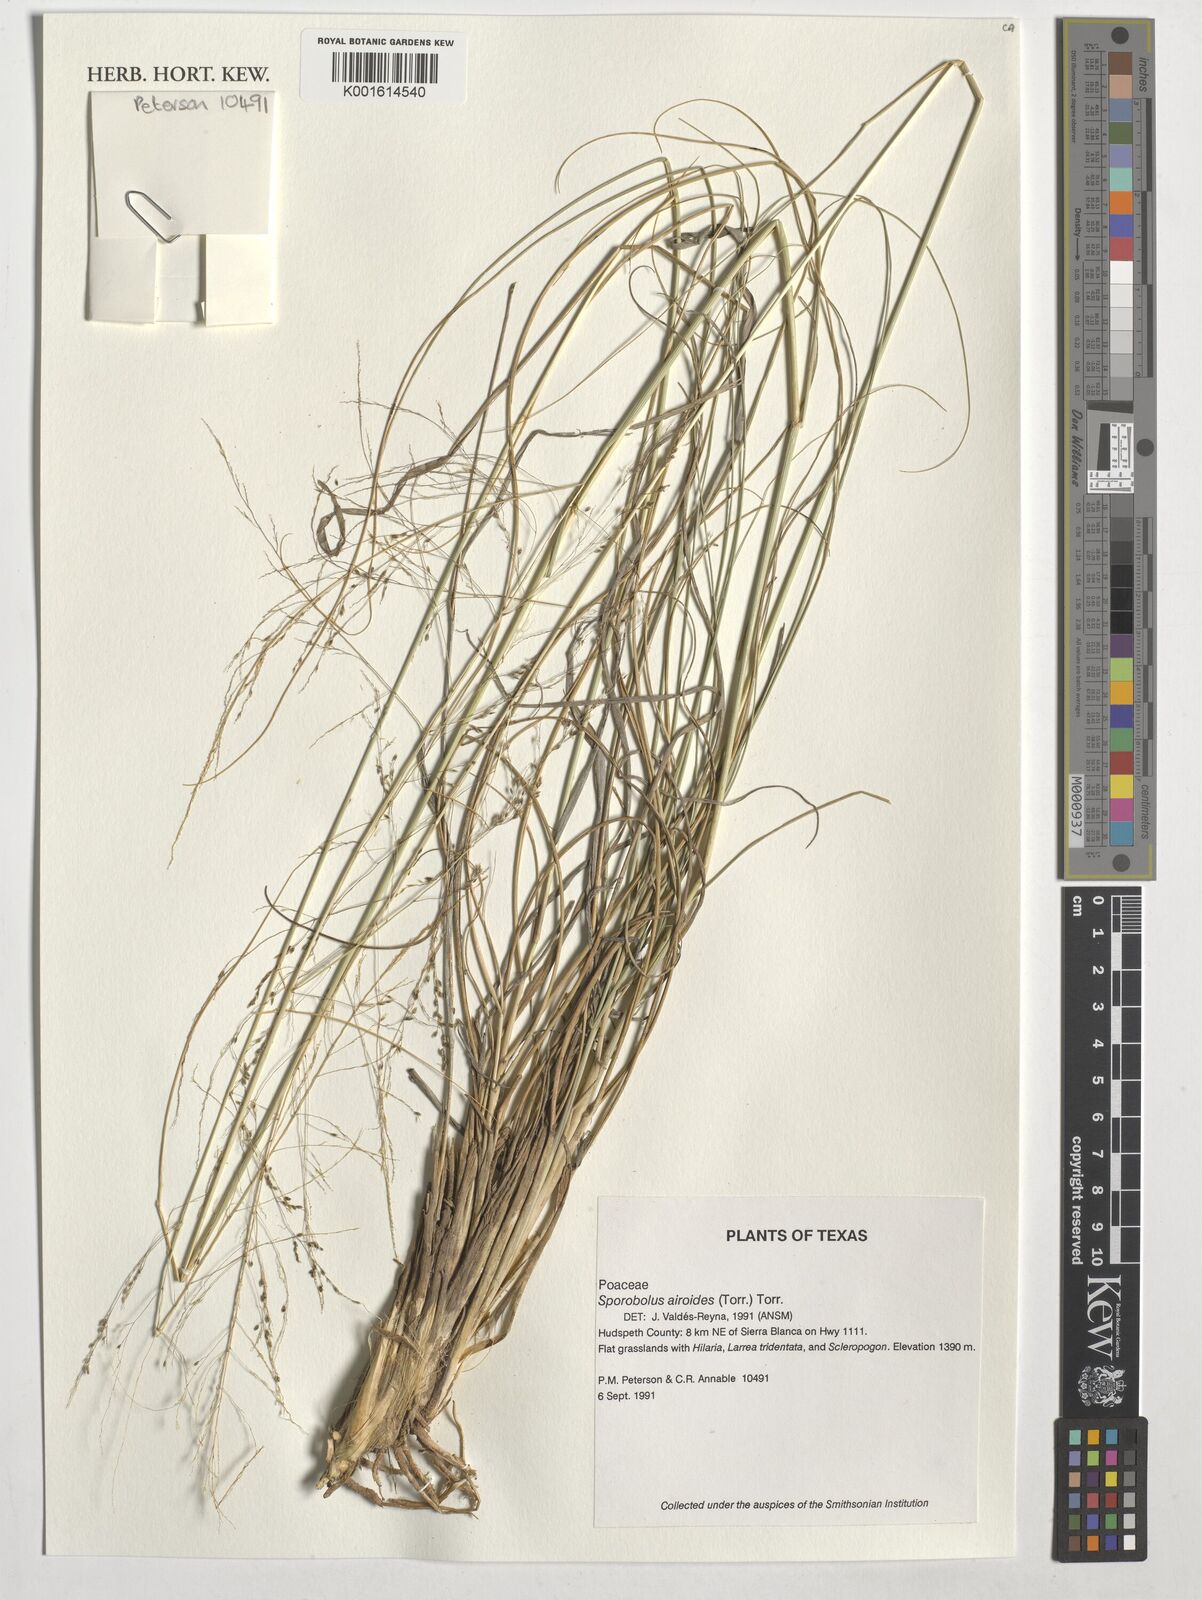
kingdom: Plantae
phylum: Tracheophyta
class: Liliopsida
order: Poales
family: Poaceae
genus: Sporobolus
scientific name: Sporobolus airoides
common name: Alkali sacaton
